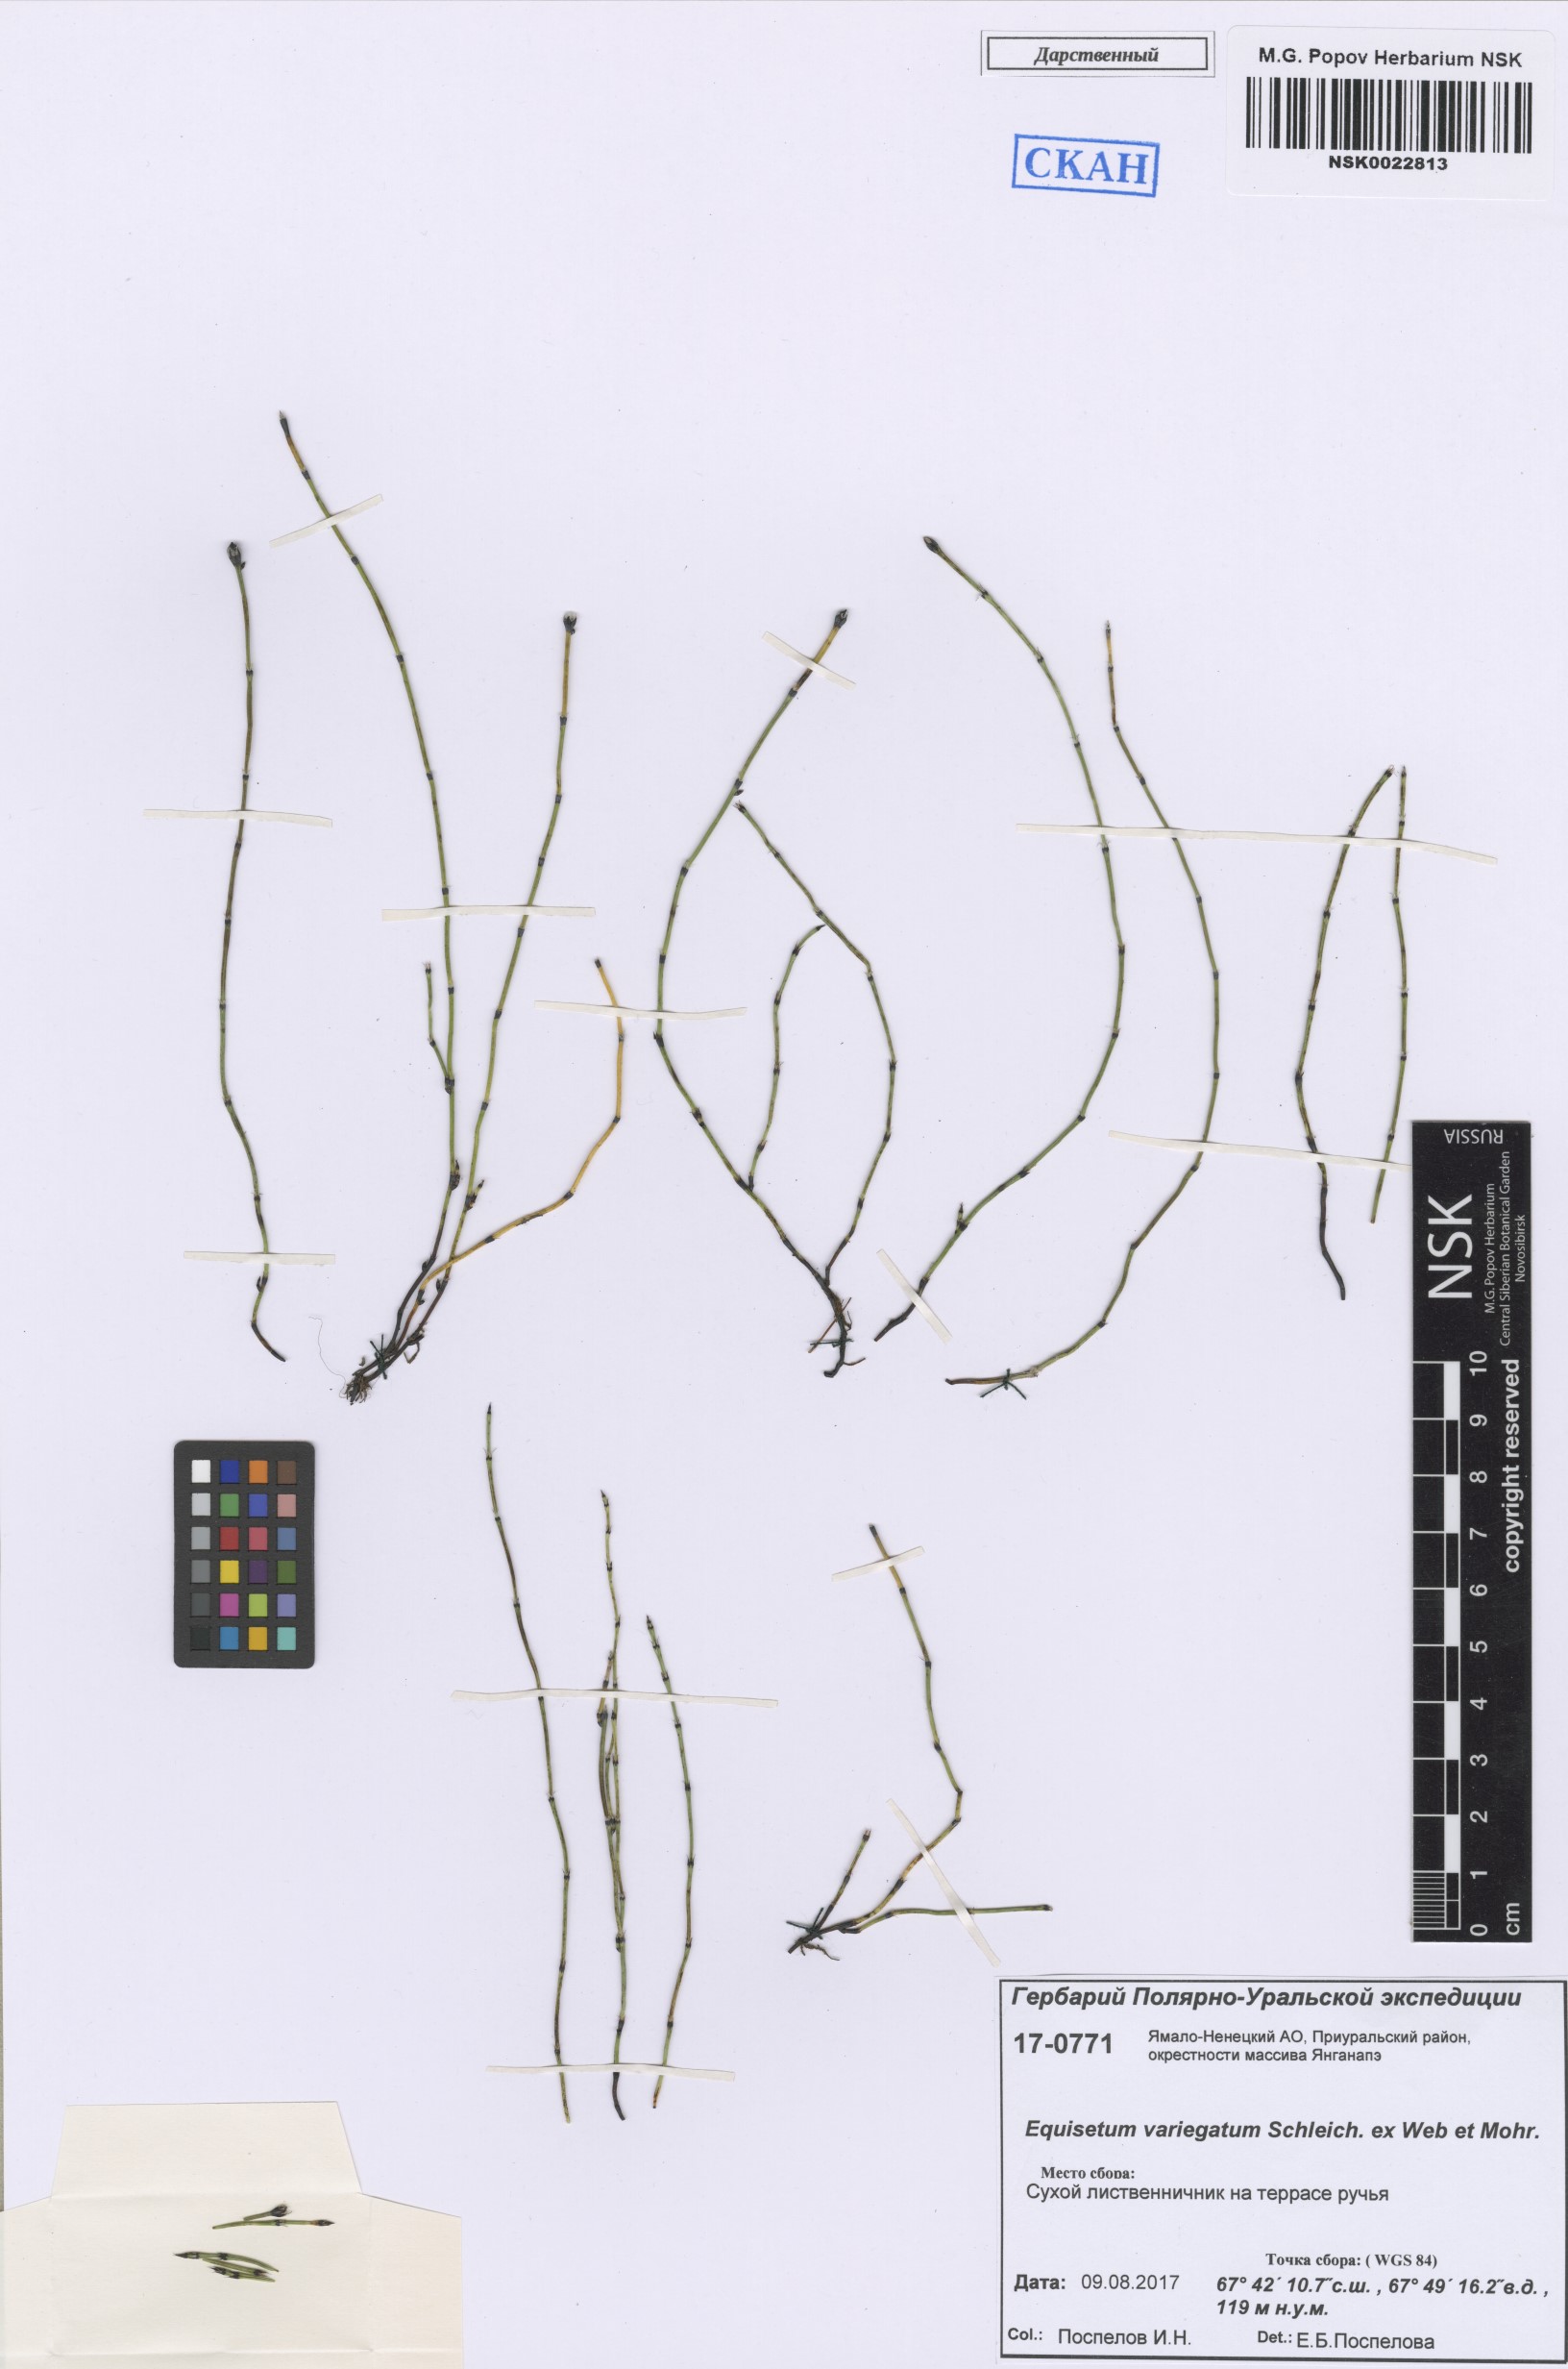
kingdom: Plantae
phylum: Tracheophyta
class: Polypodiopsida
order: Equisetales
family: Equisetaceae
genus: Equisetum
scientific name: Equisetum variegatum
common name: Variegated horsetail
